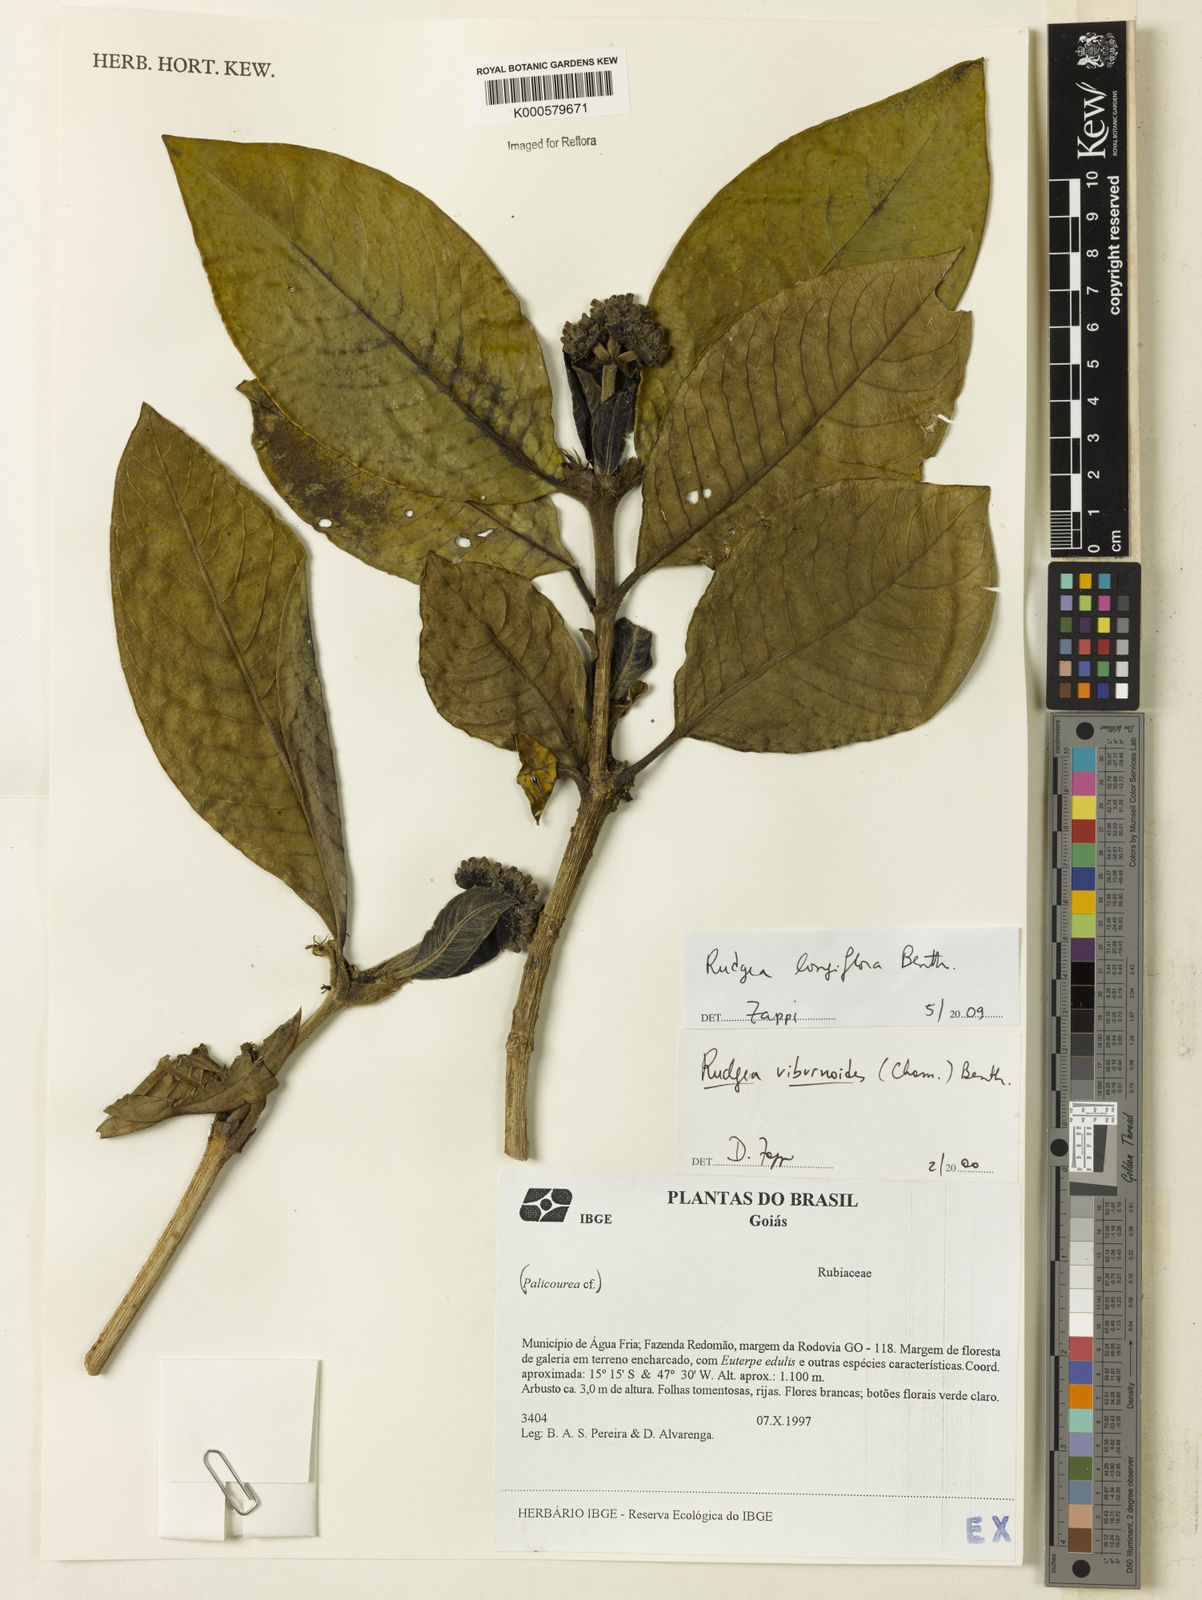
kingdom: Plantae
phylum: Tracheophyta
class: Magnoliopsida
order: Gentianales
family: Rubiaceae
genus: Rudgea
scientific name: Rudgea longiflora
